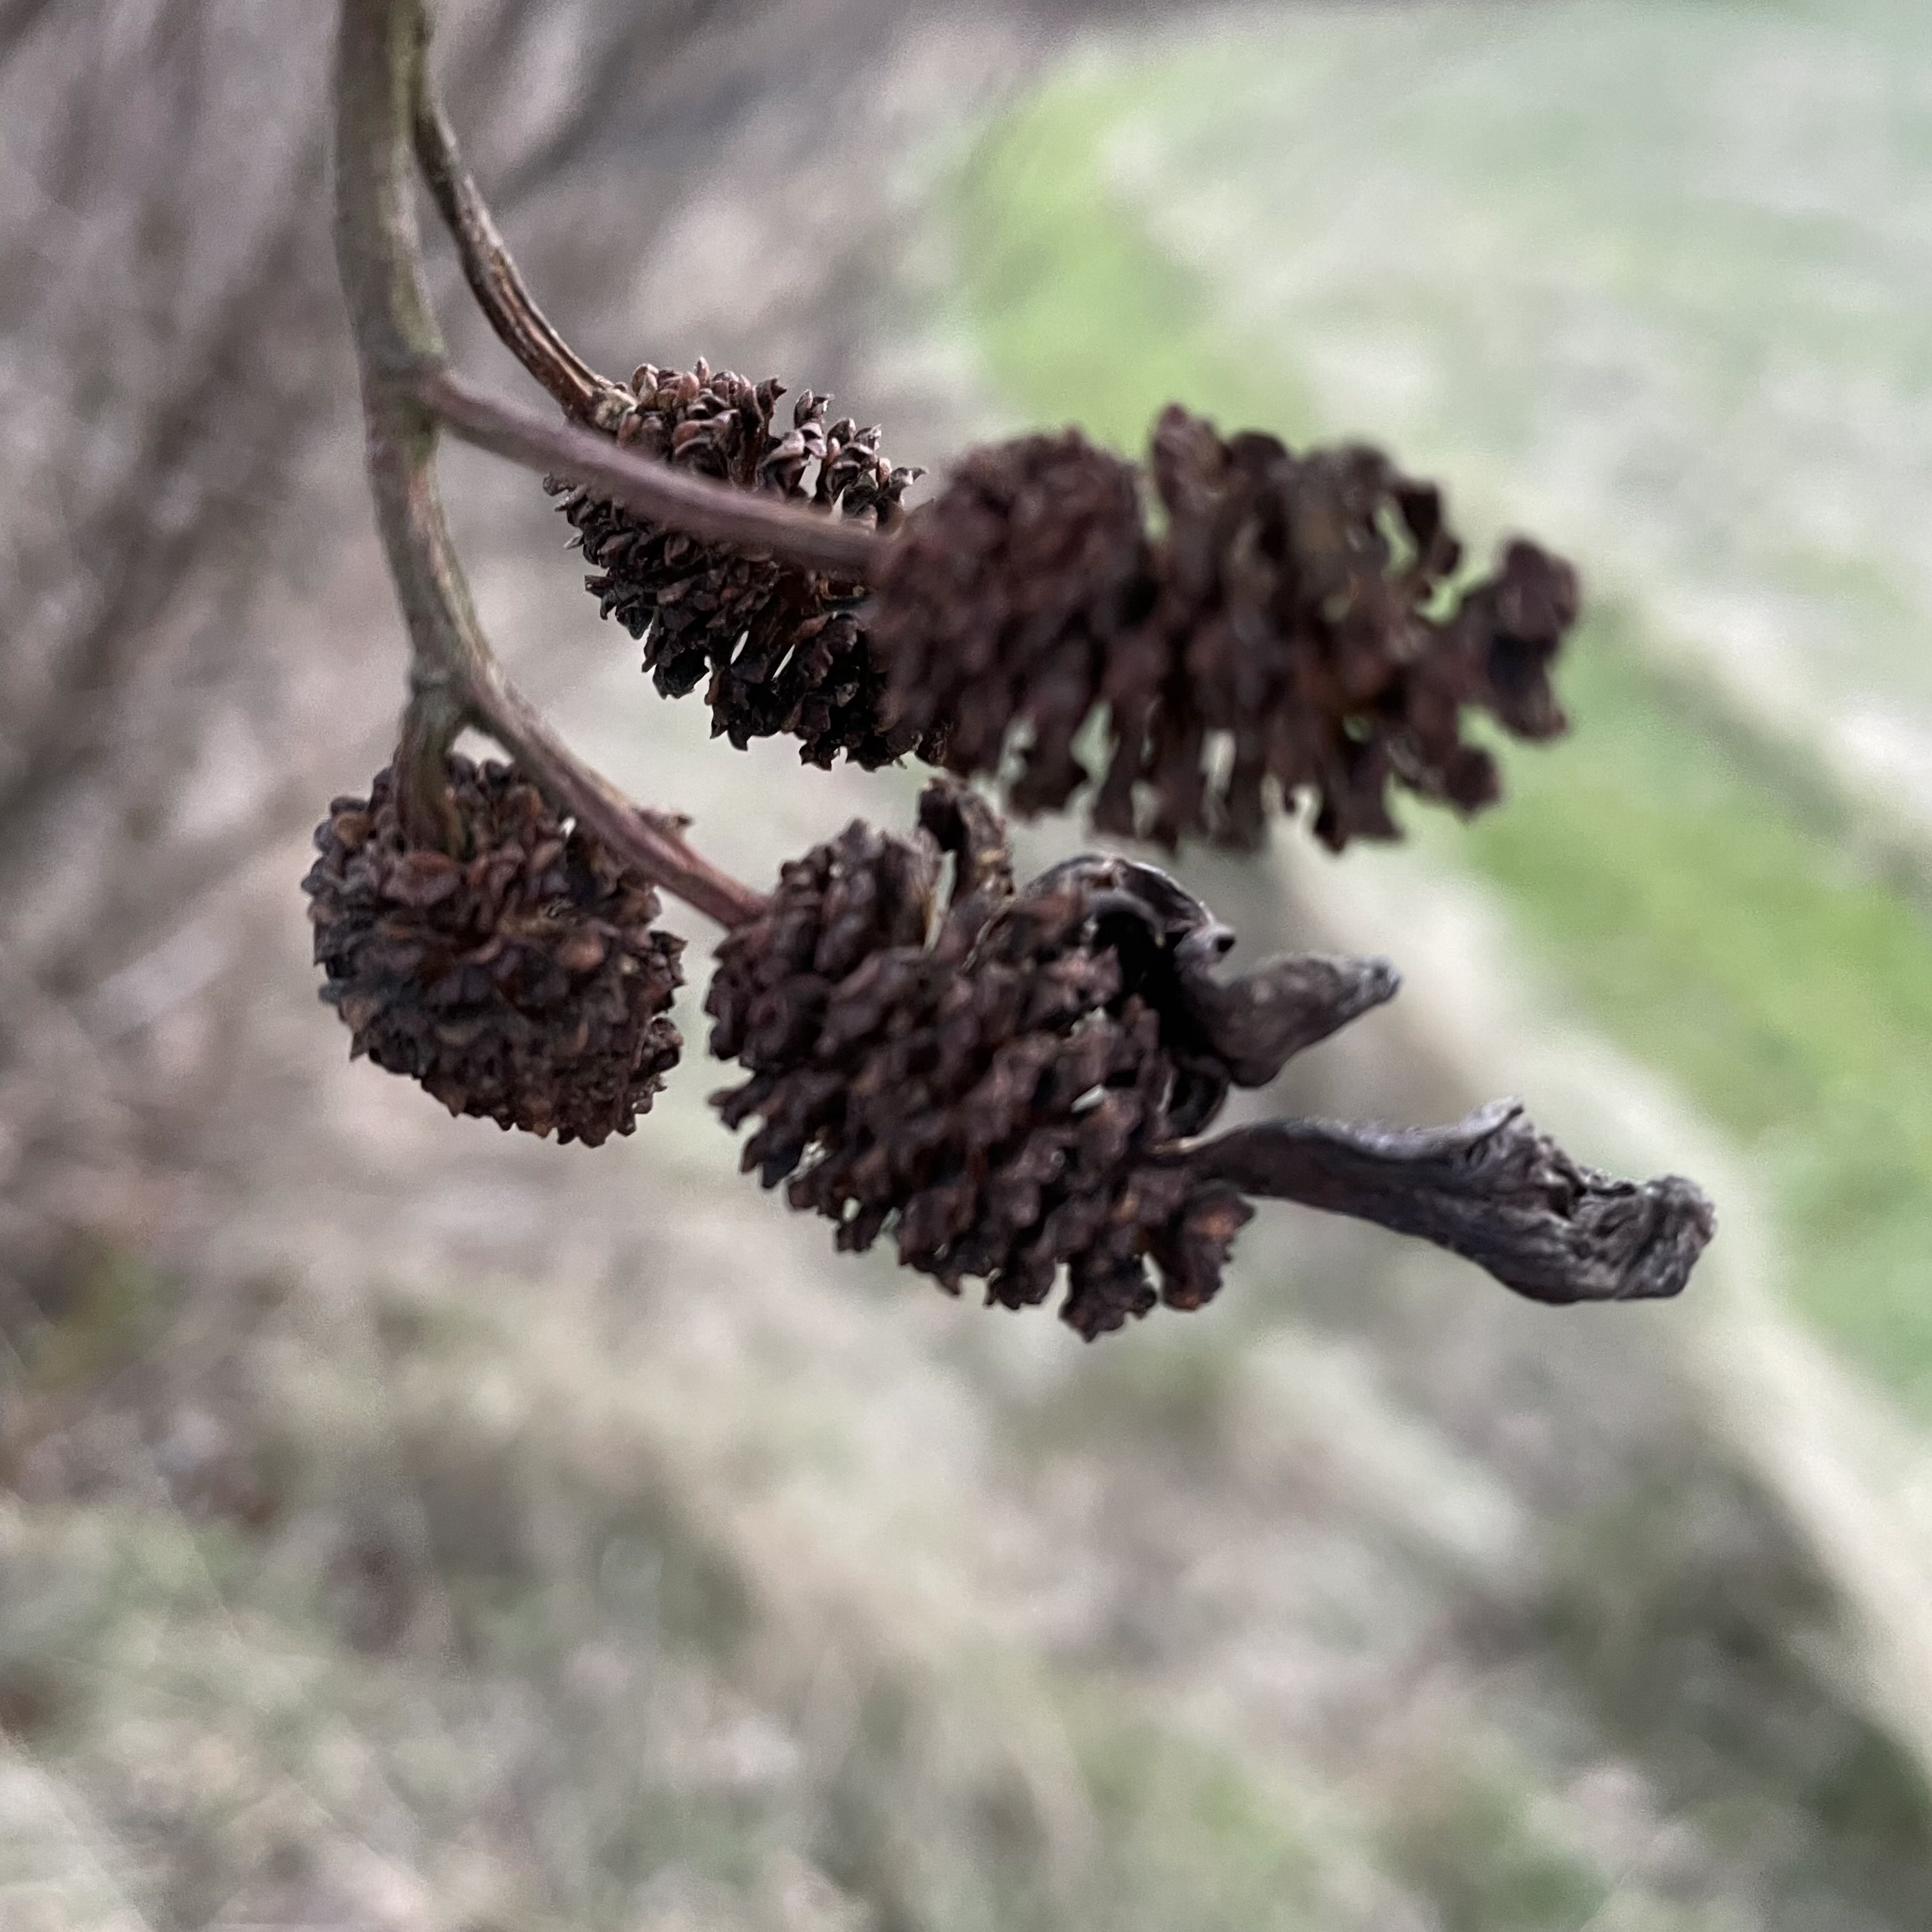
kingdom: Fungi
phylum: Ascomycota
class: Taphrinomycetes
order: Taphrinales
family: Taphrinaceae
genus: Taphrina
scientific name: Taphrina alni
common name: Alder tongue
